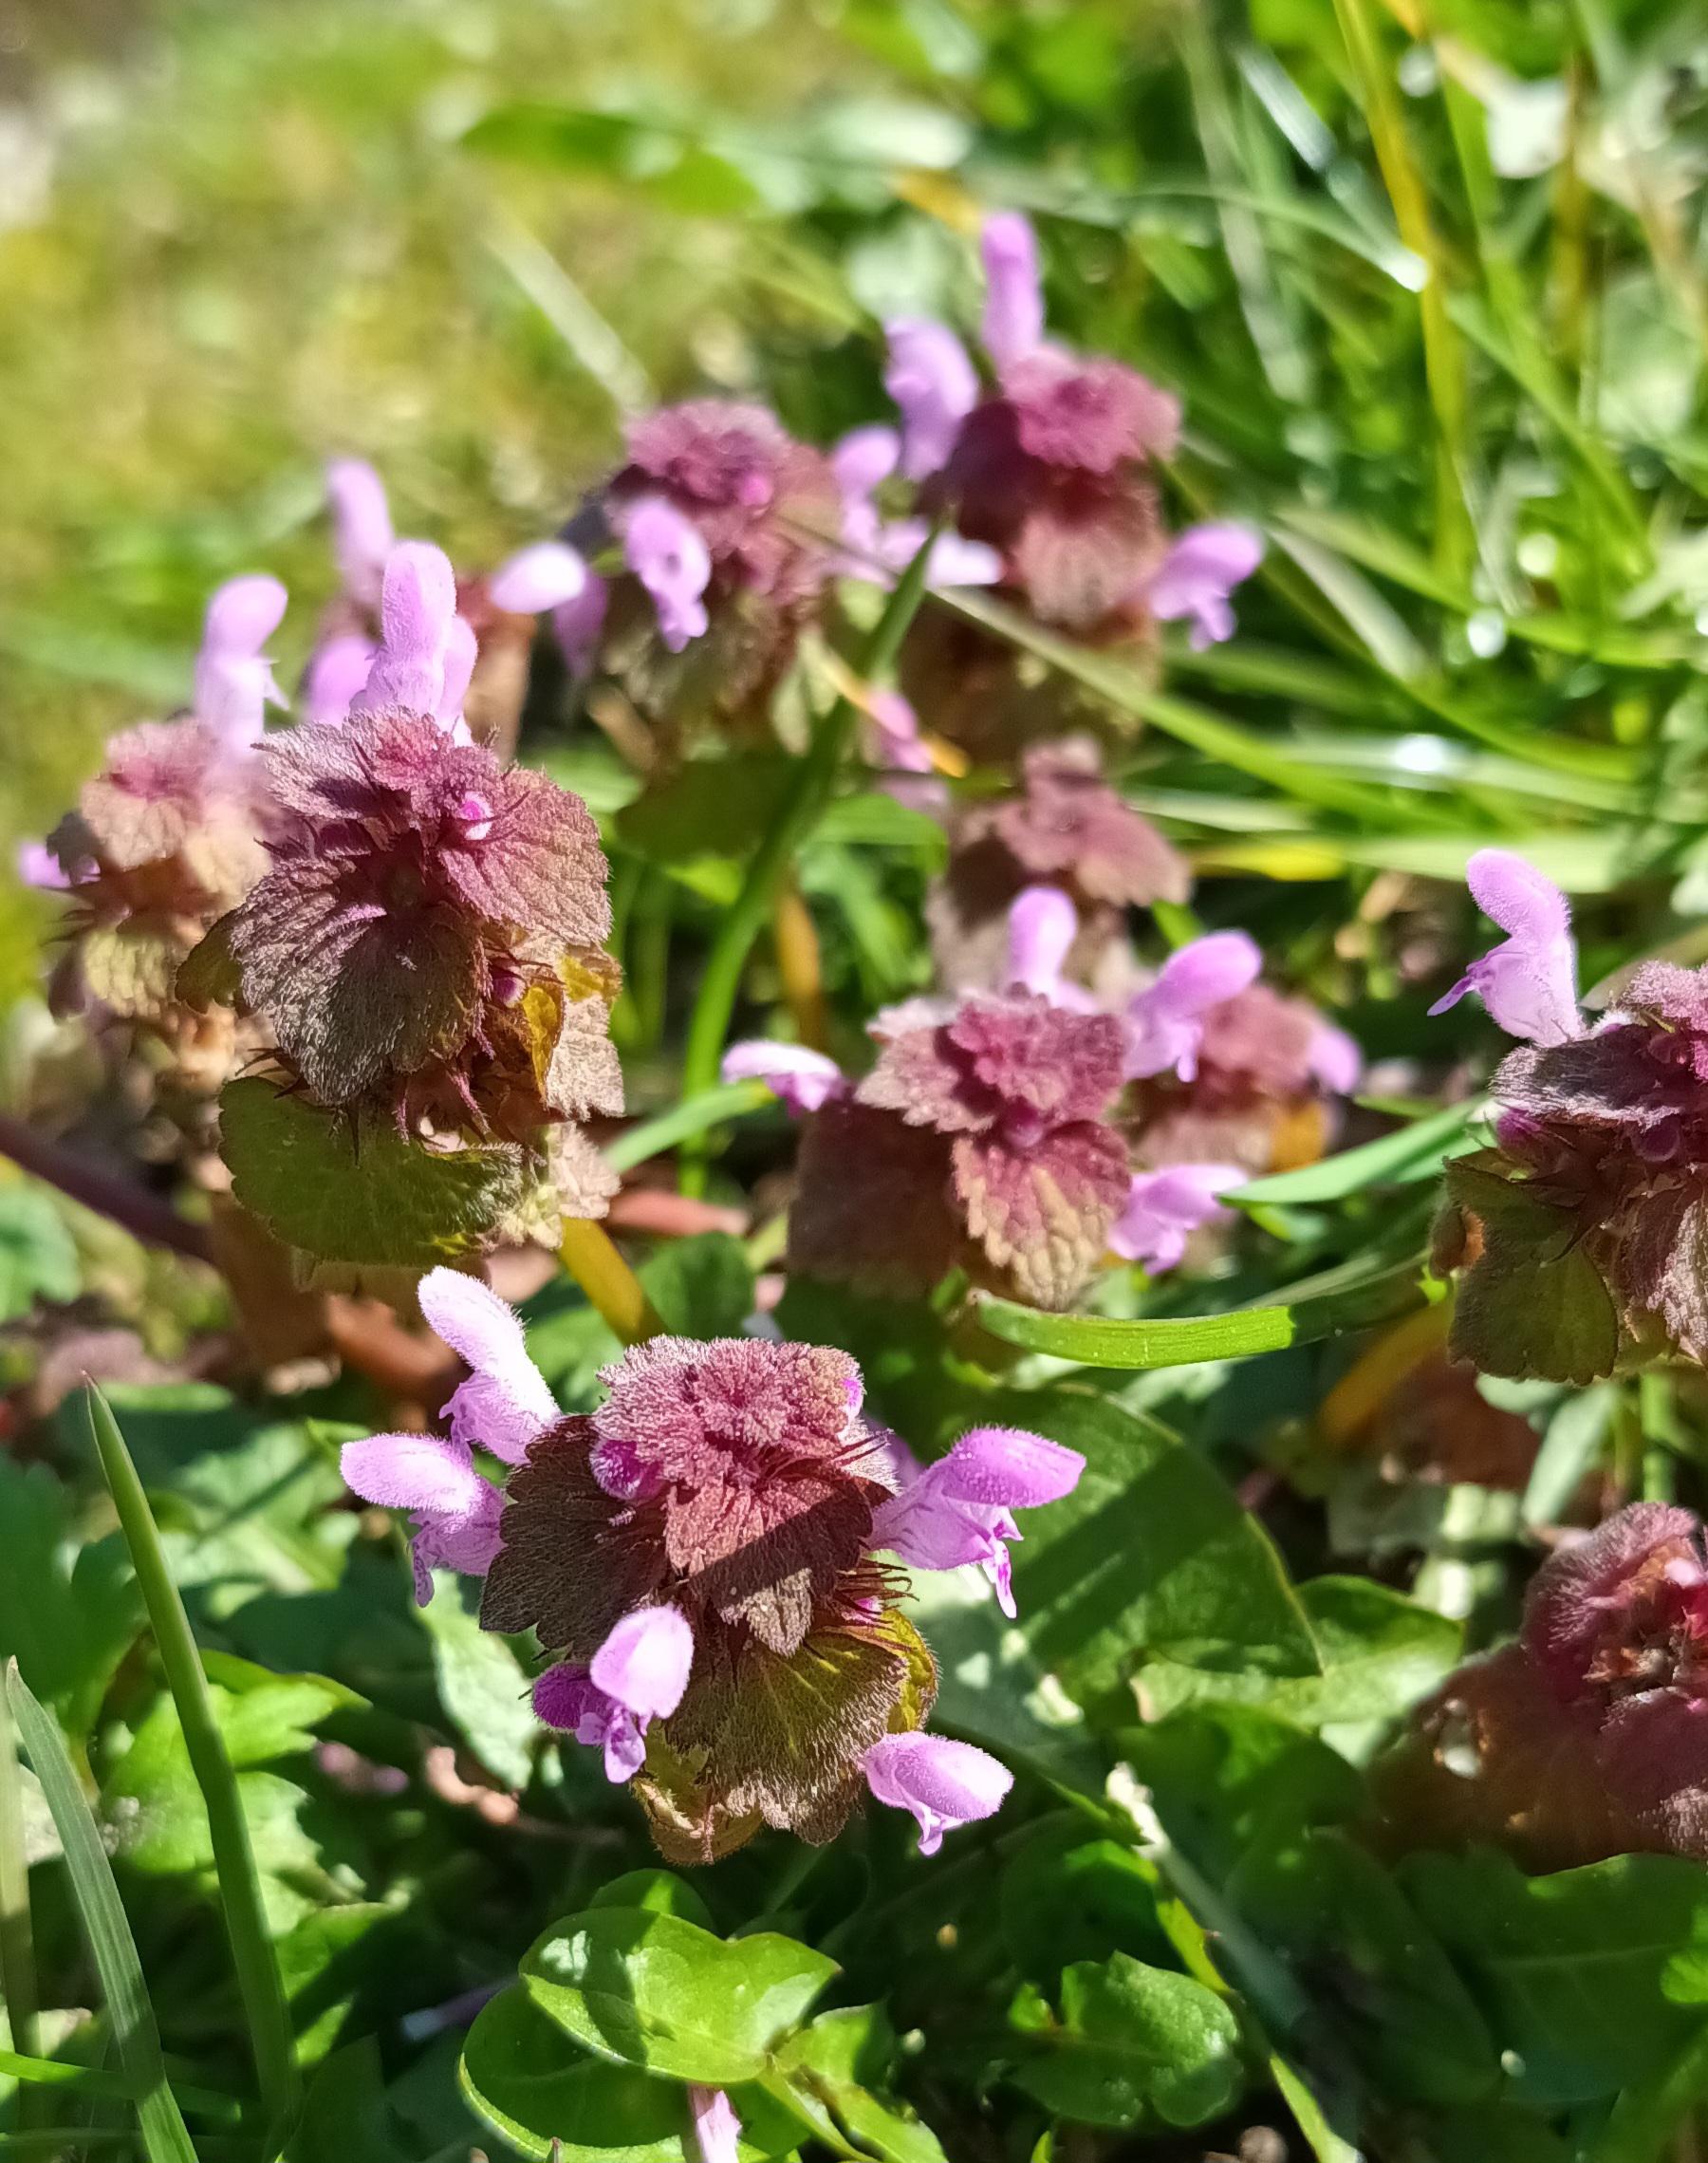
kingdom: Plantae
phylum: Tracheophyta
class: Magnoliopsida
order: Lamiales
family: Lamiaceae
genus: Lamium
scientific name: Lamium purpureum
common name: Rød tvetand
